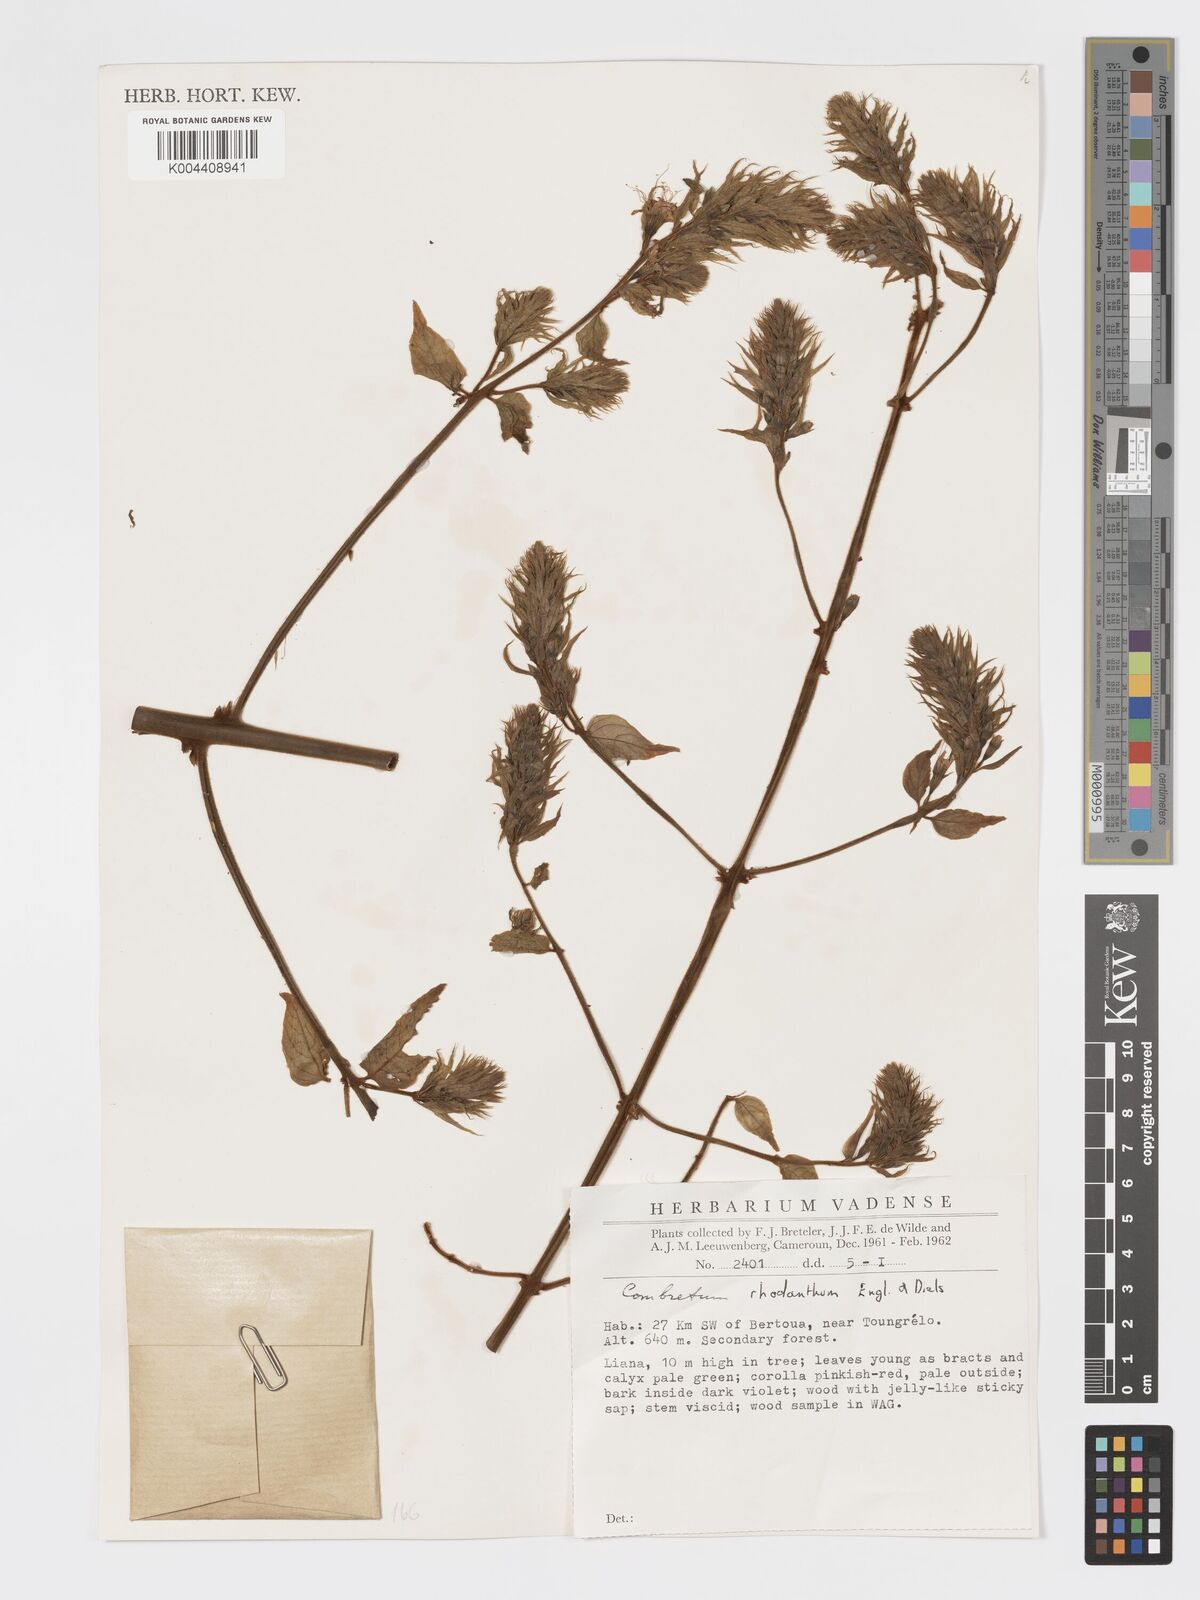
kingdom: Plantae
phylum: Tracheophyta
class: Magnoliopsida
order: Myrtales
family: Combretaceae
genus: Combretum
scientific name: Combretum comosum
